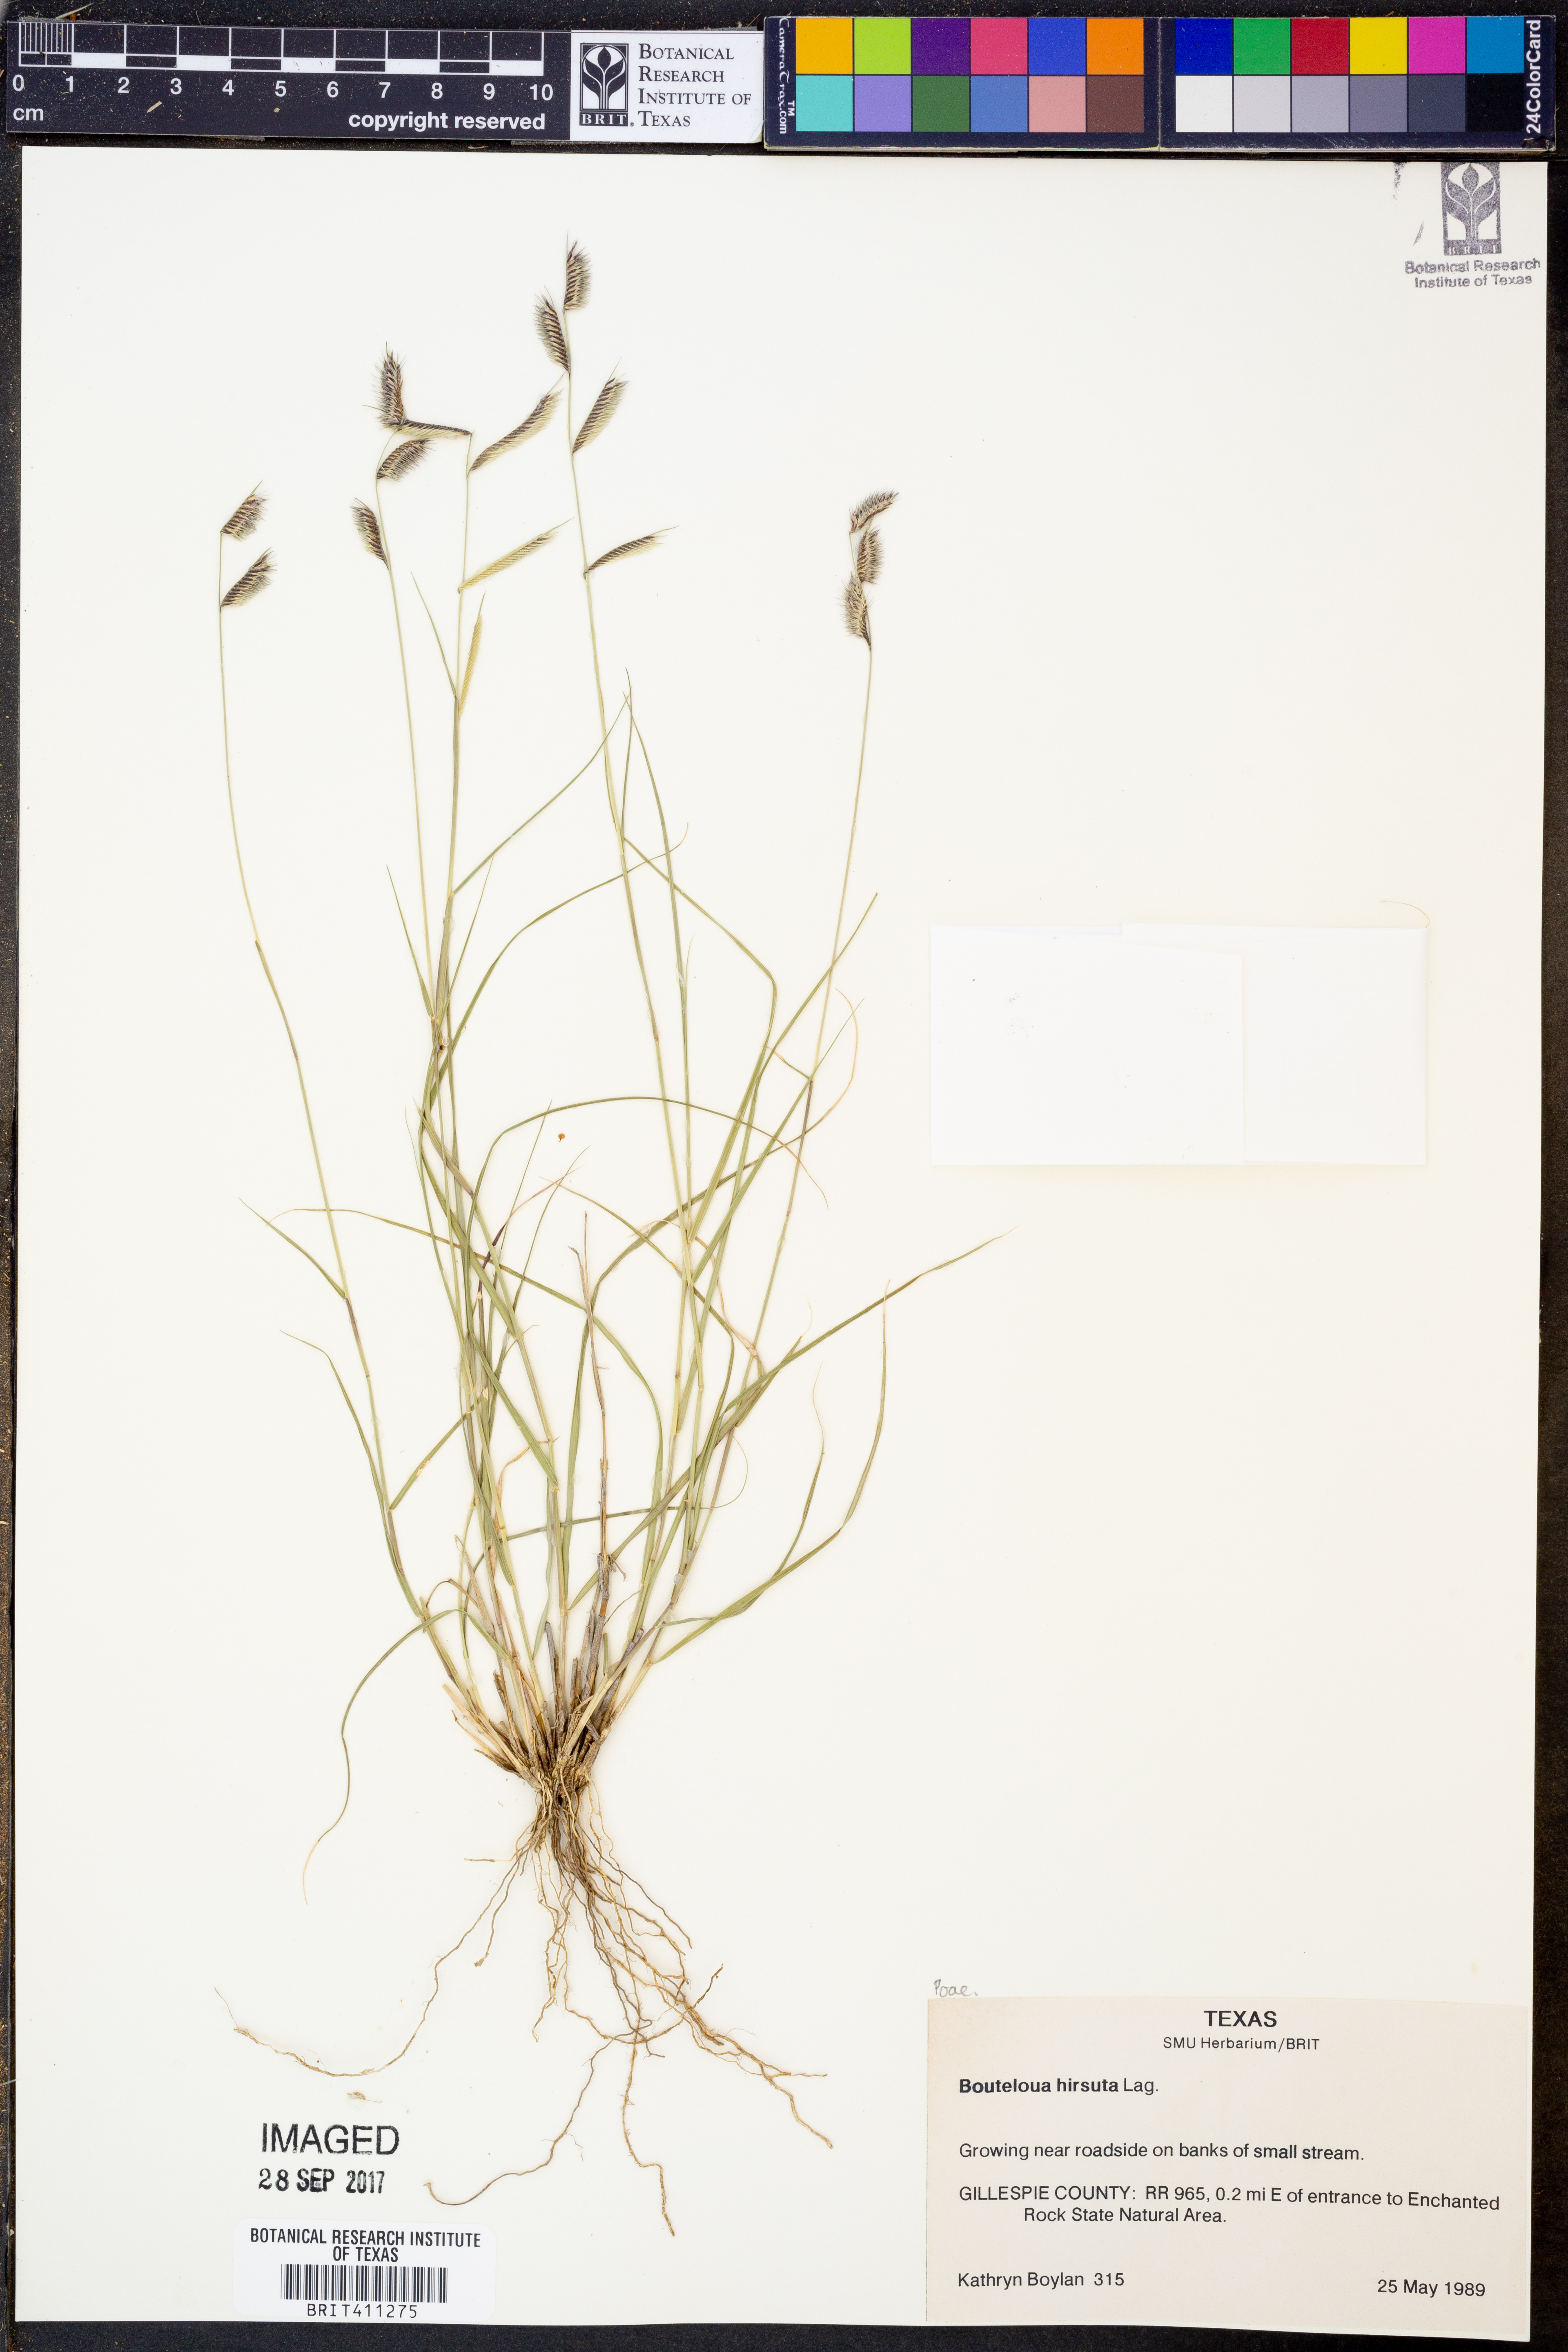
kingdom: Plantae
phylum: Tracheophyta
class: Liliopsida
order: Poales
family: Poaceae
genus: Bouteloua
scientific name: Bouteloua hirsuta
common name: Hairy grama
